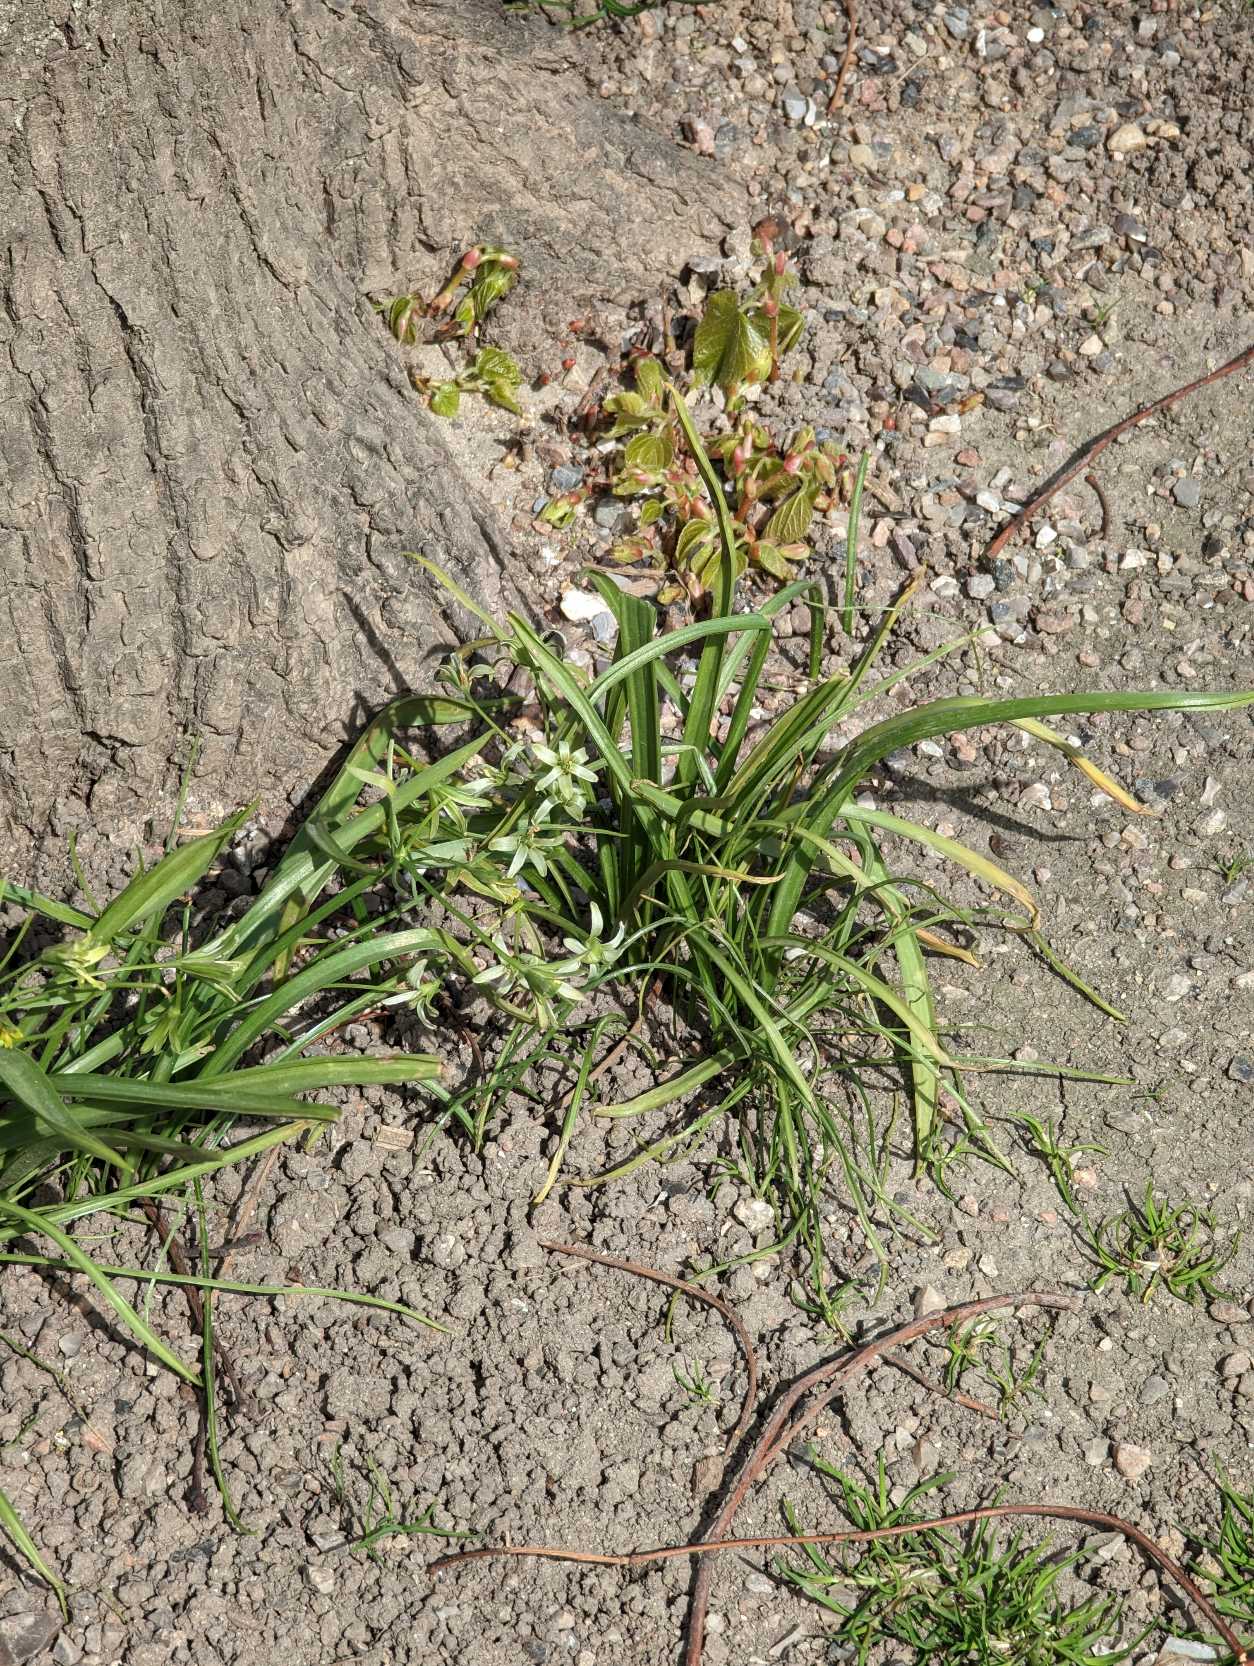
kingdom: Plantae
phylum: Tracheophyta
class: Liliopsida
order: Liliales
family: Liliaceae
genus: Gagea
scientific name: Gagea lutea
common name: Almindelig guldstjerne
